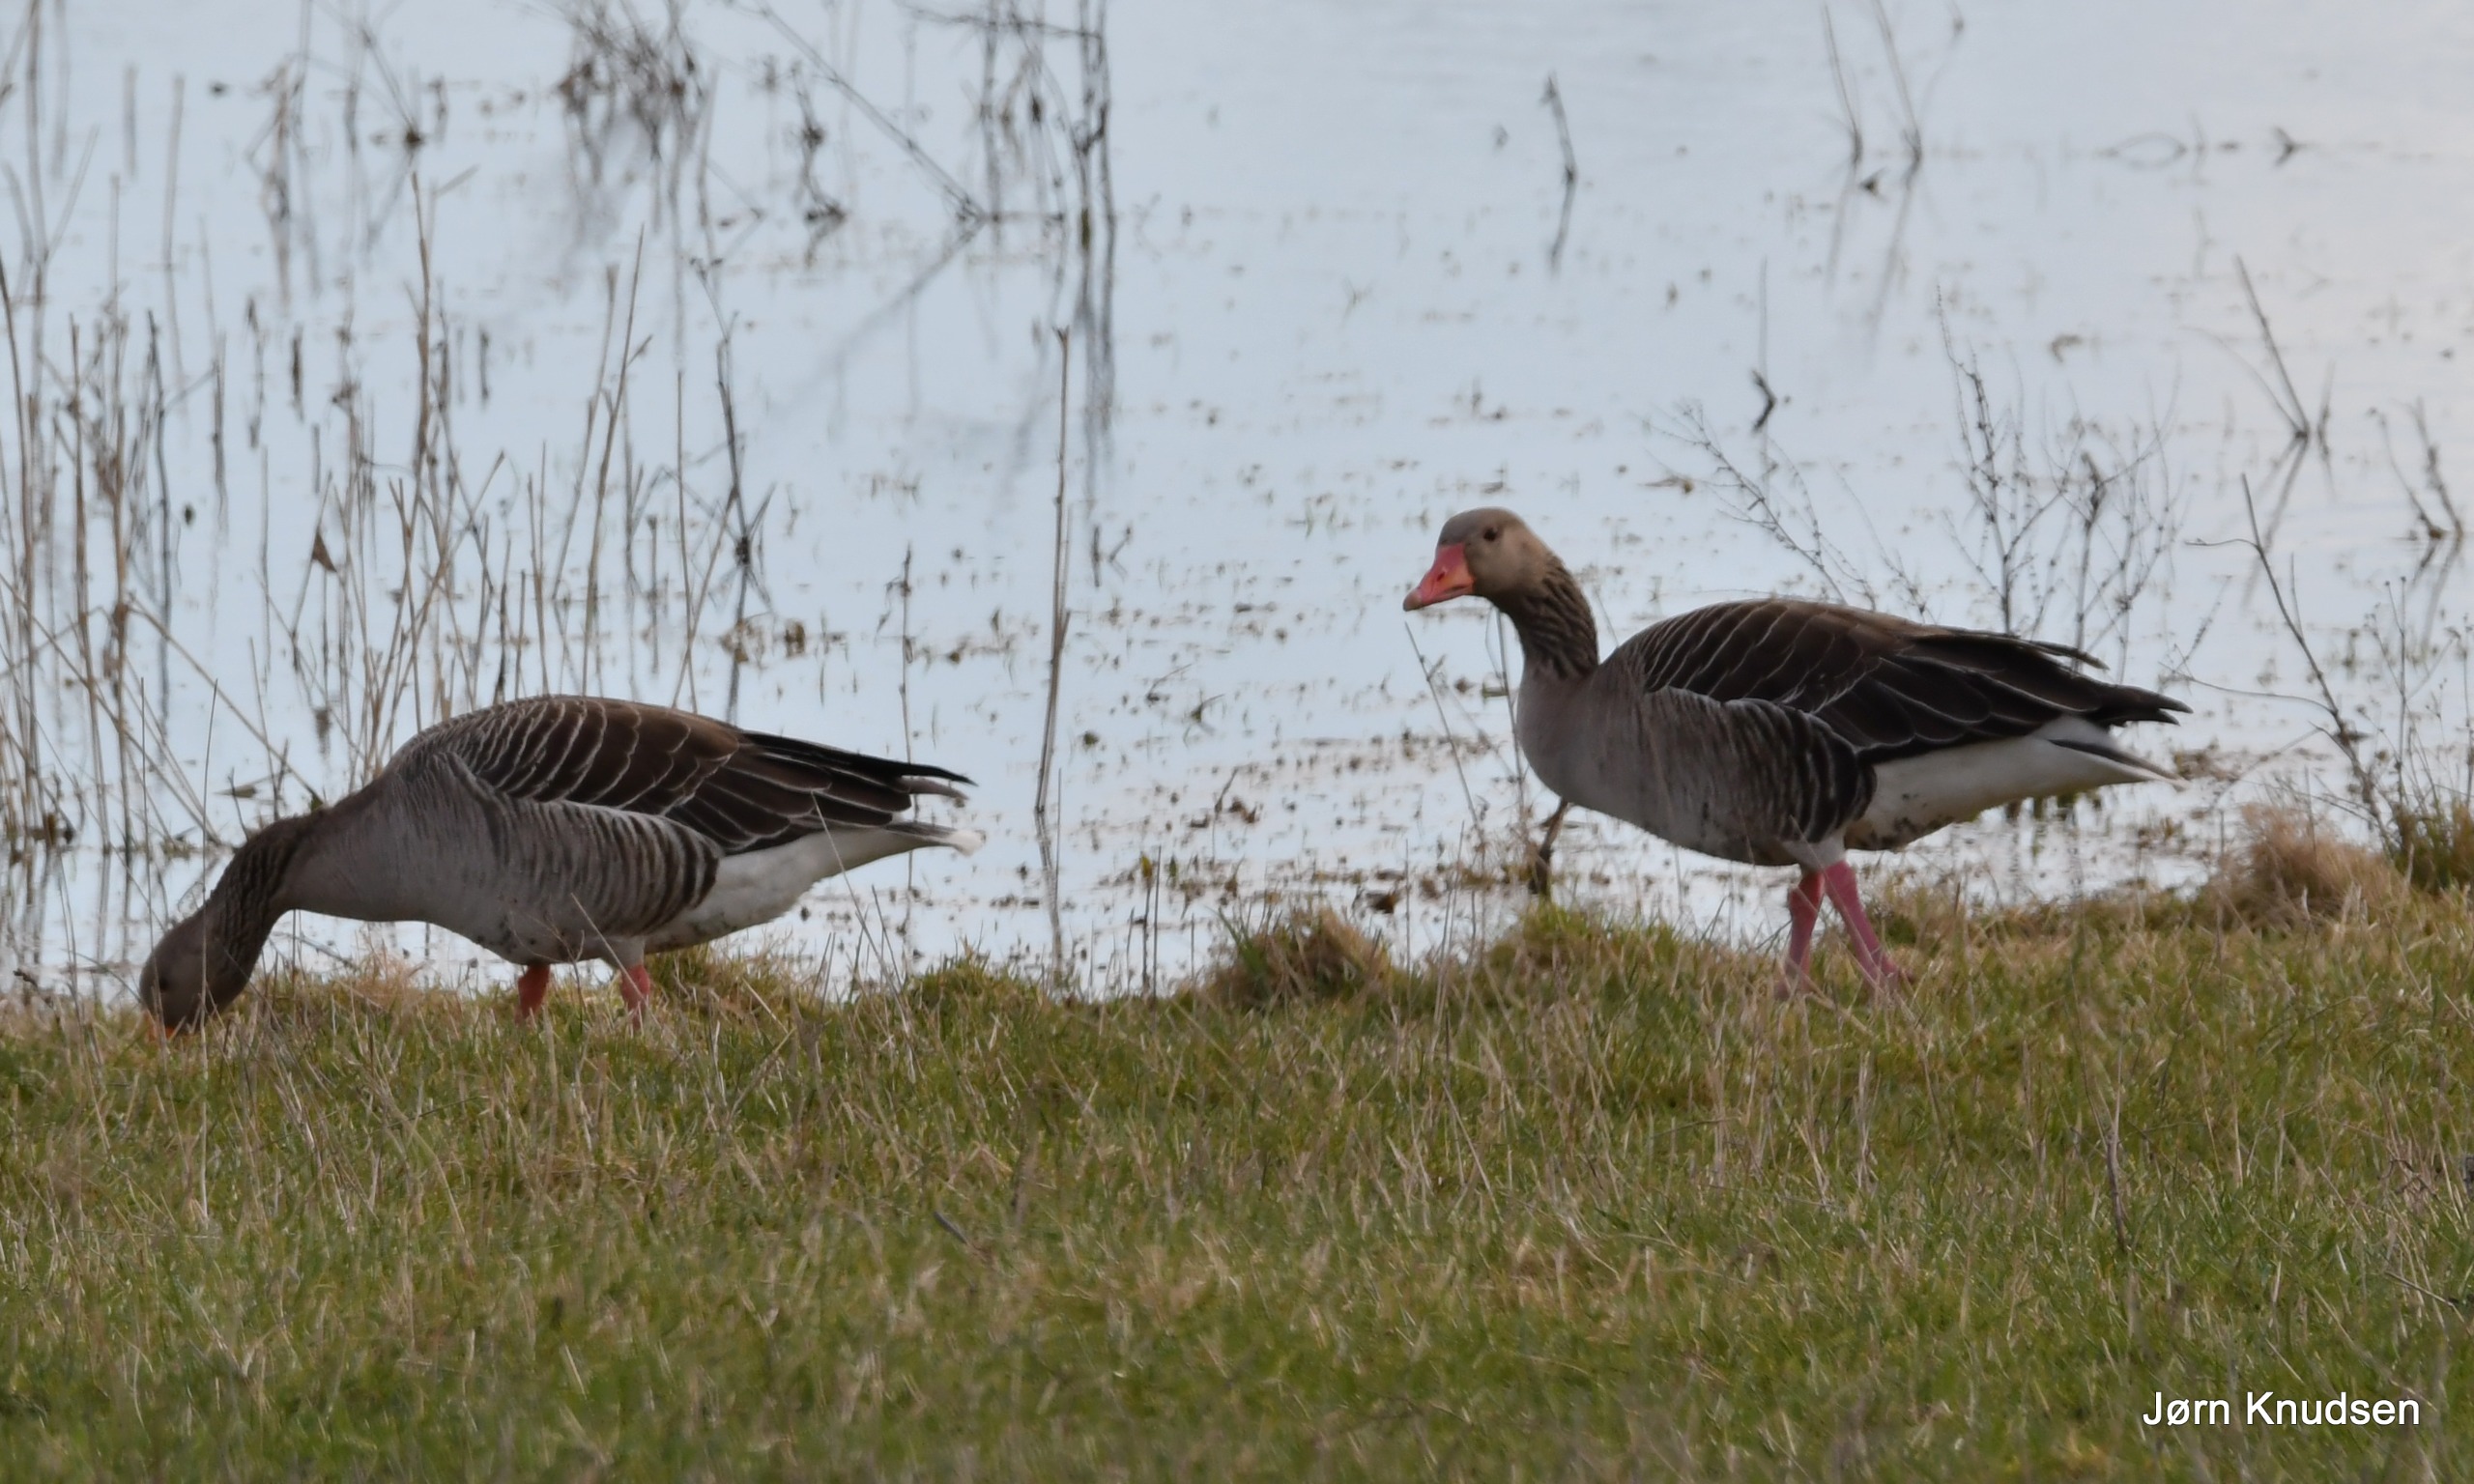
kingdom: Animalia
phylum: Chordata
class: Aves
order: Anseriformes
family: Anatidae
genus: Anser
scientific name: Anser anser
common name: Grågås
